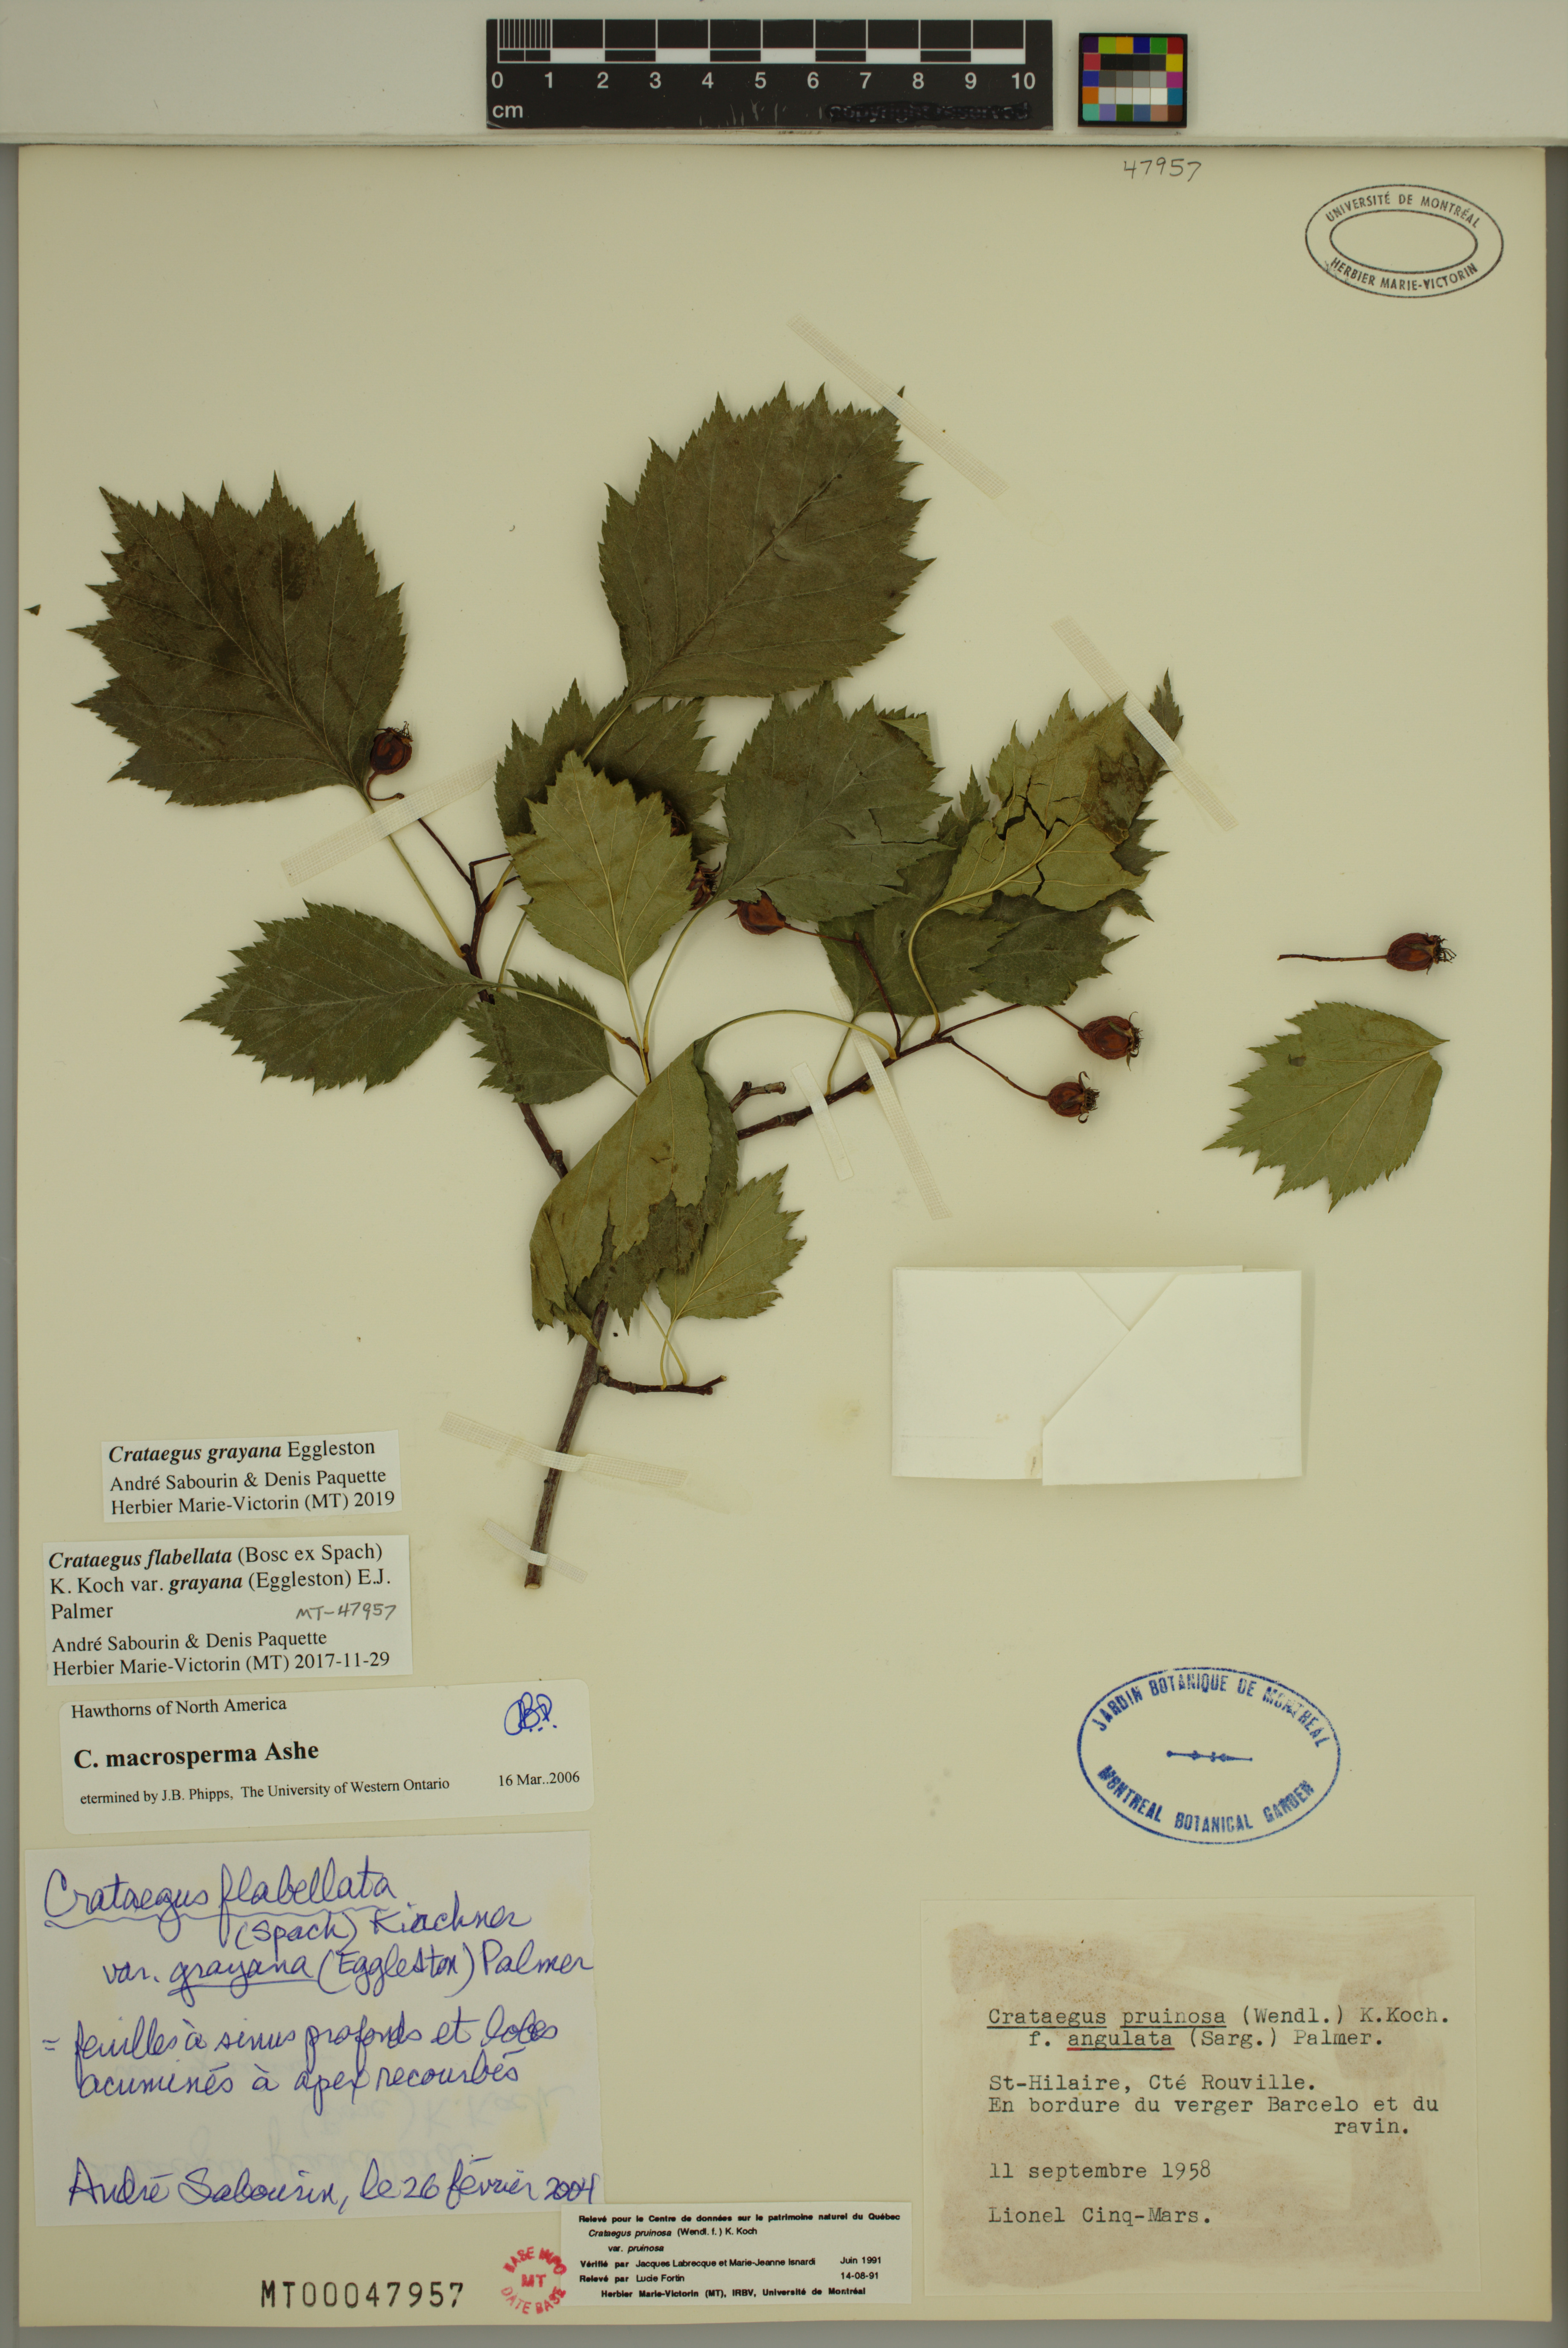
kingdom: Plantae
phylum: Tracheophyta
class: Magnoliopsida
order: Rosales
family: Rosaceae
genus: Crataegus
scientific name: Crataegus schuettei
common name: Schuette's hawthorn
